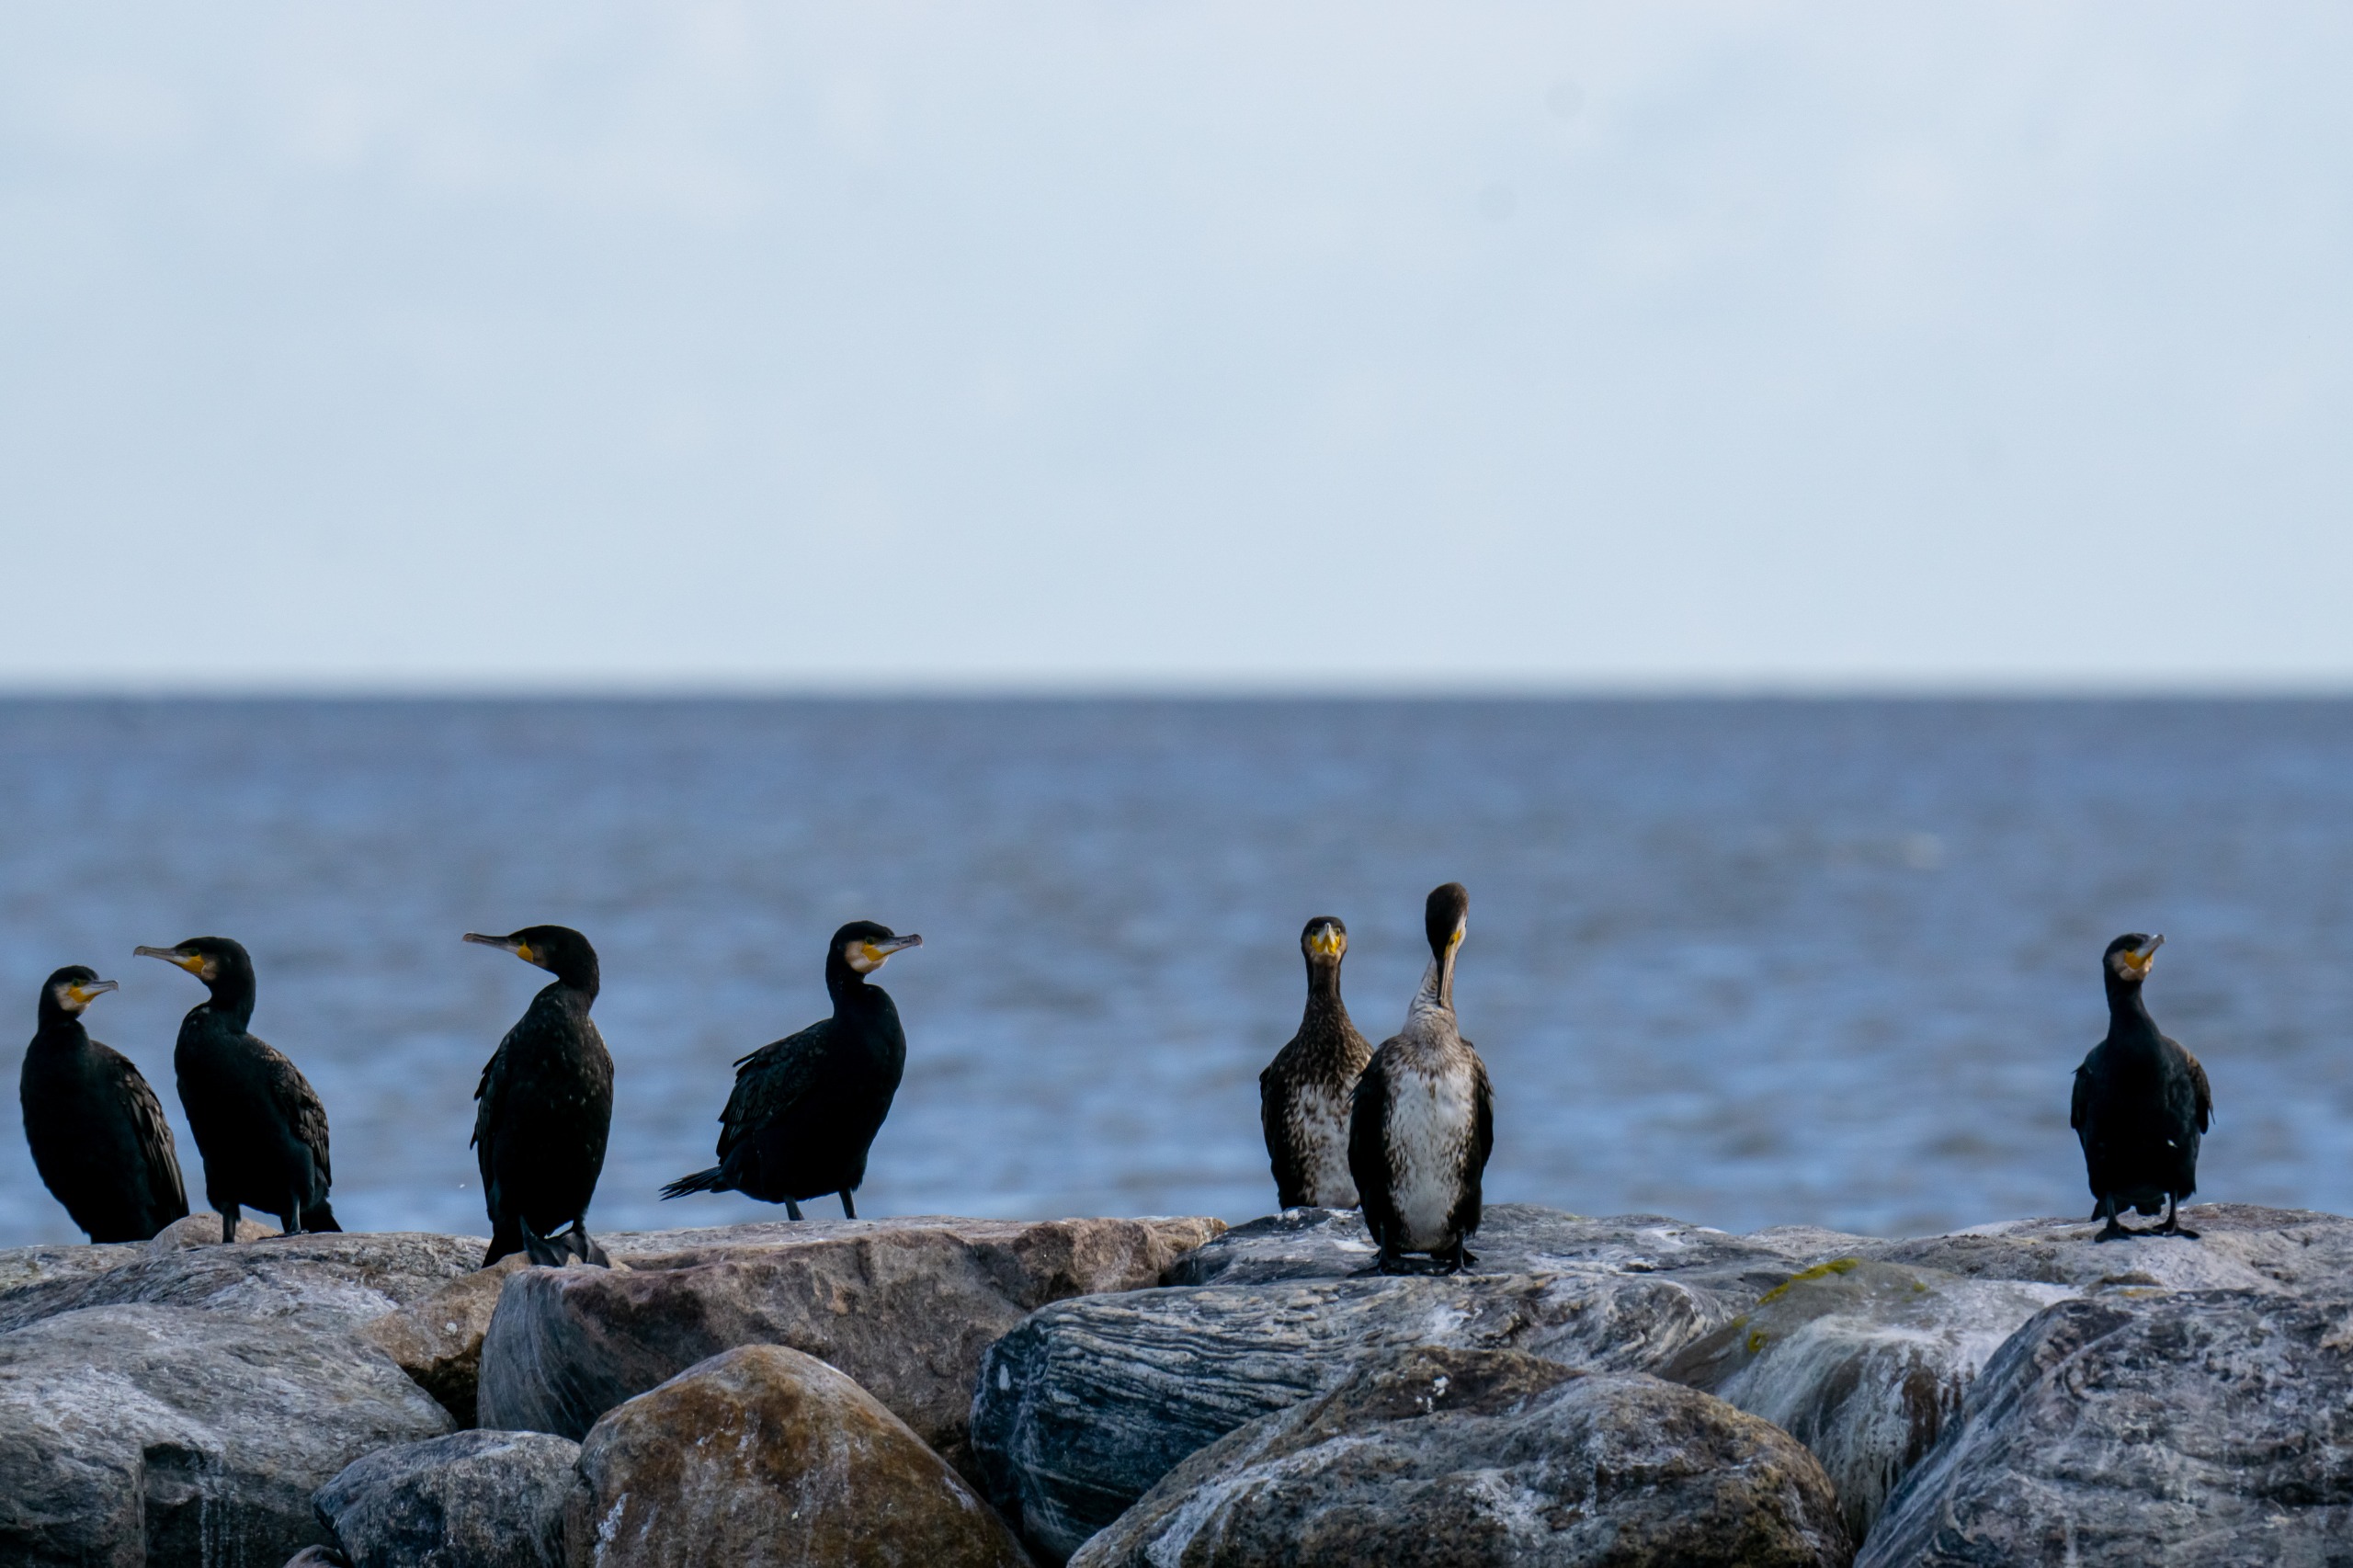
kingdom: Animalia
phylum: Chordata
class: Aves
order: Suliformes
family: Phalacrocoracidae
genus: Phalacrocorax
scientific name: Phalacrocorax carbo
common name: Skarv
